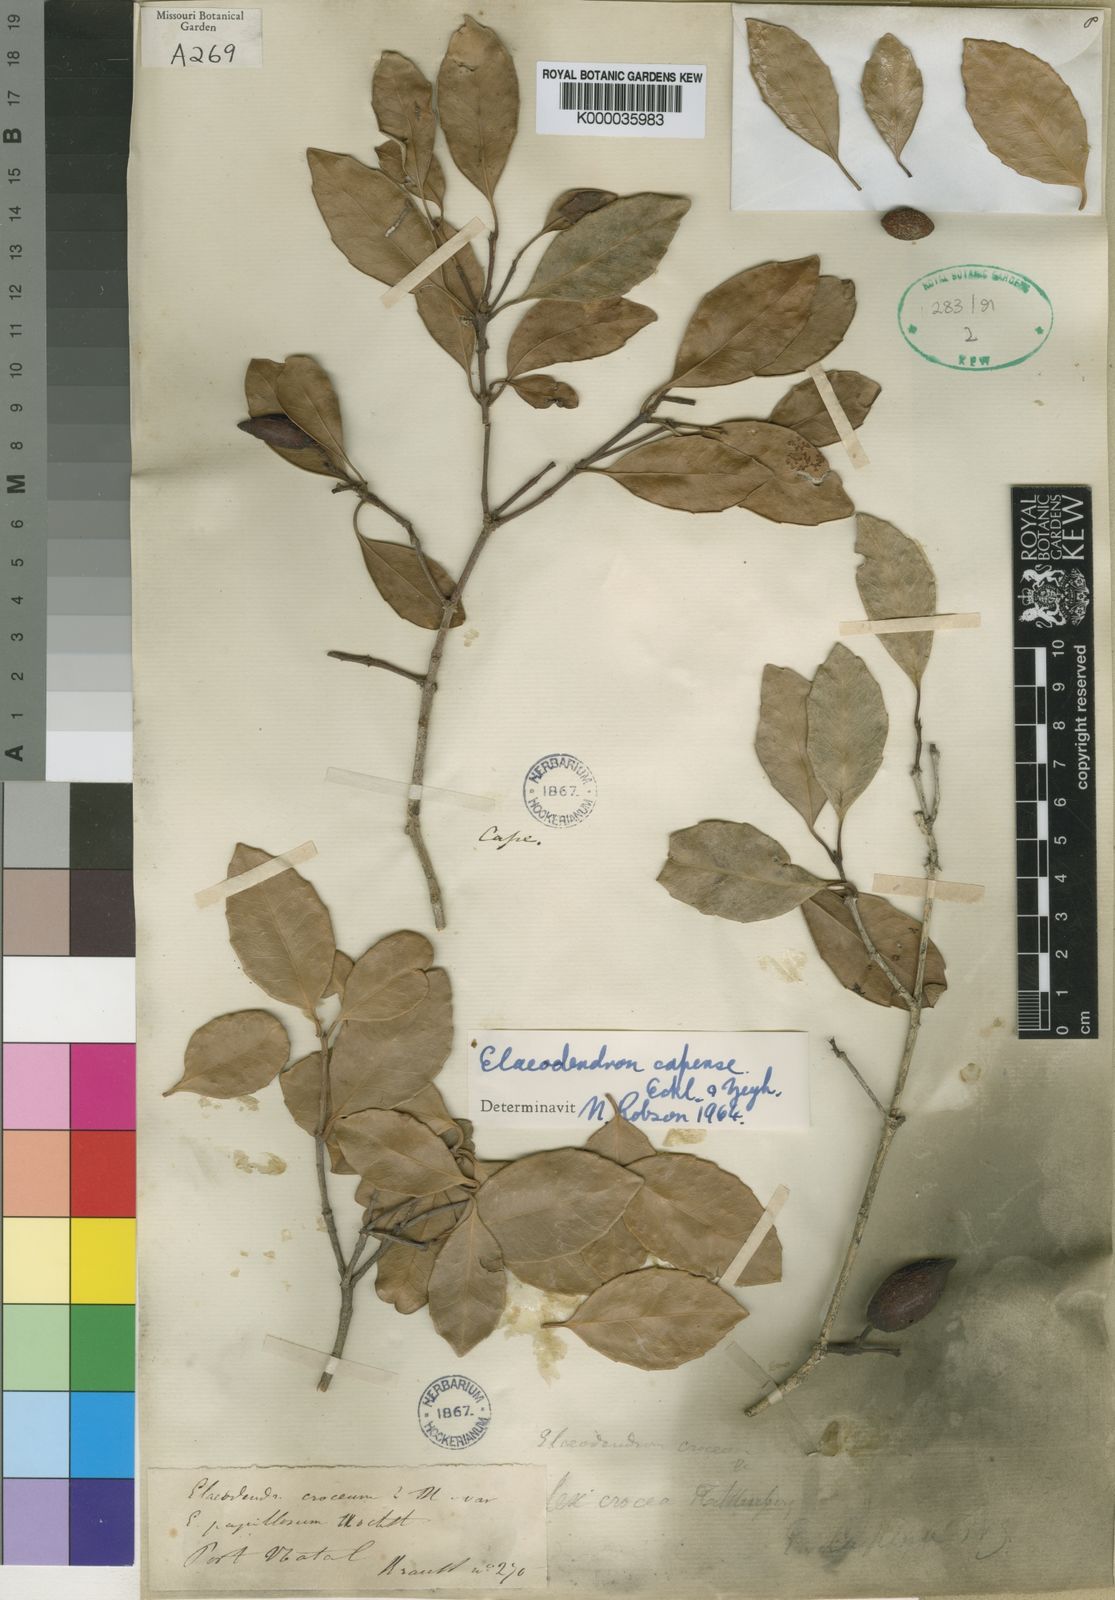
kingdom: Plantae
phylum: Tracheophyta
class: Magnoliopsida
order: Celastrales
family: Celastraceae
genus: Elaeodendron
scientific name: Elaeodendron croceum
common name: Saffron
